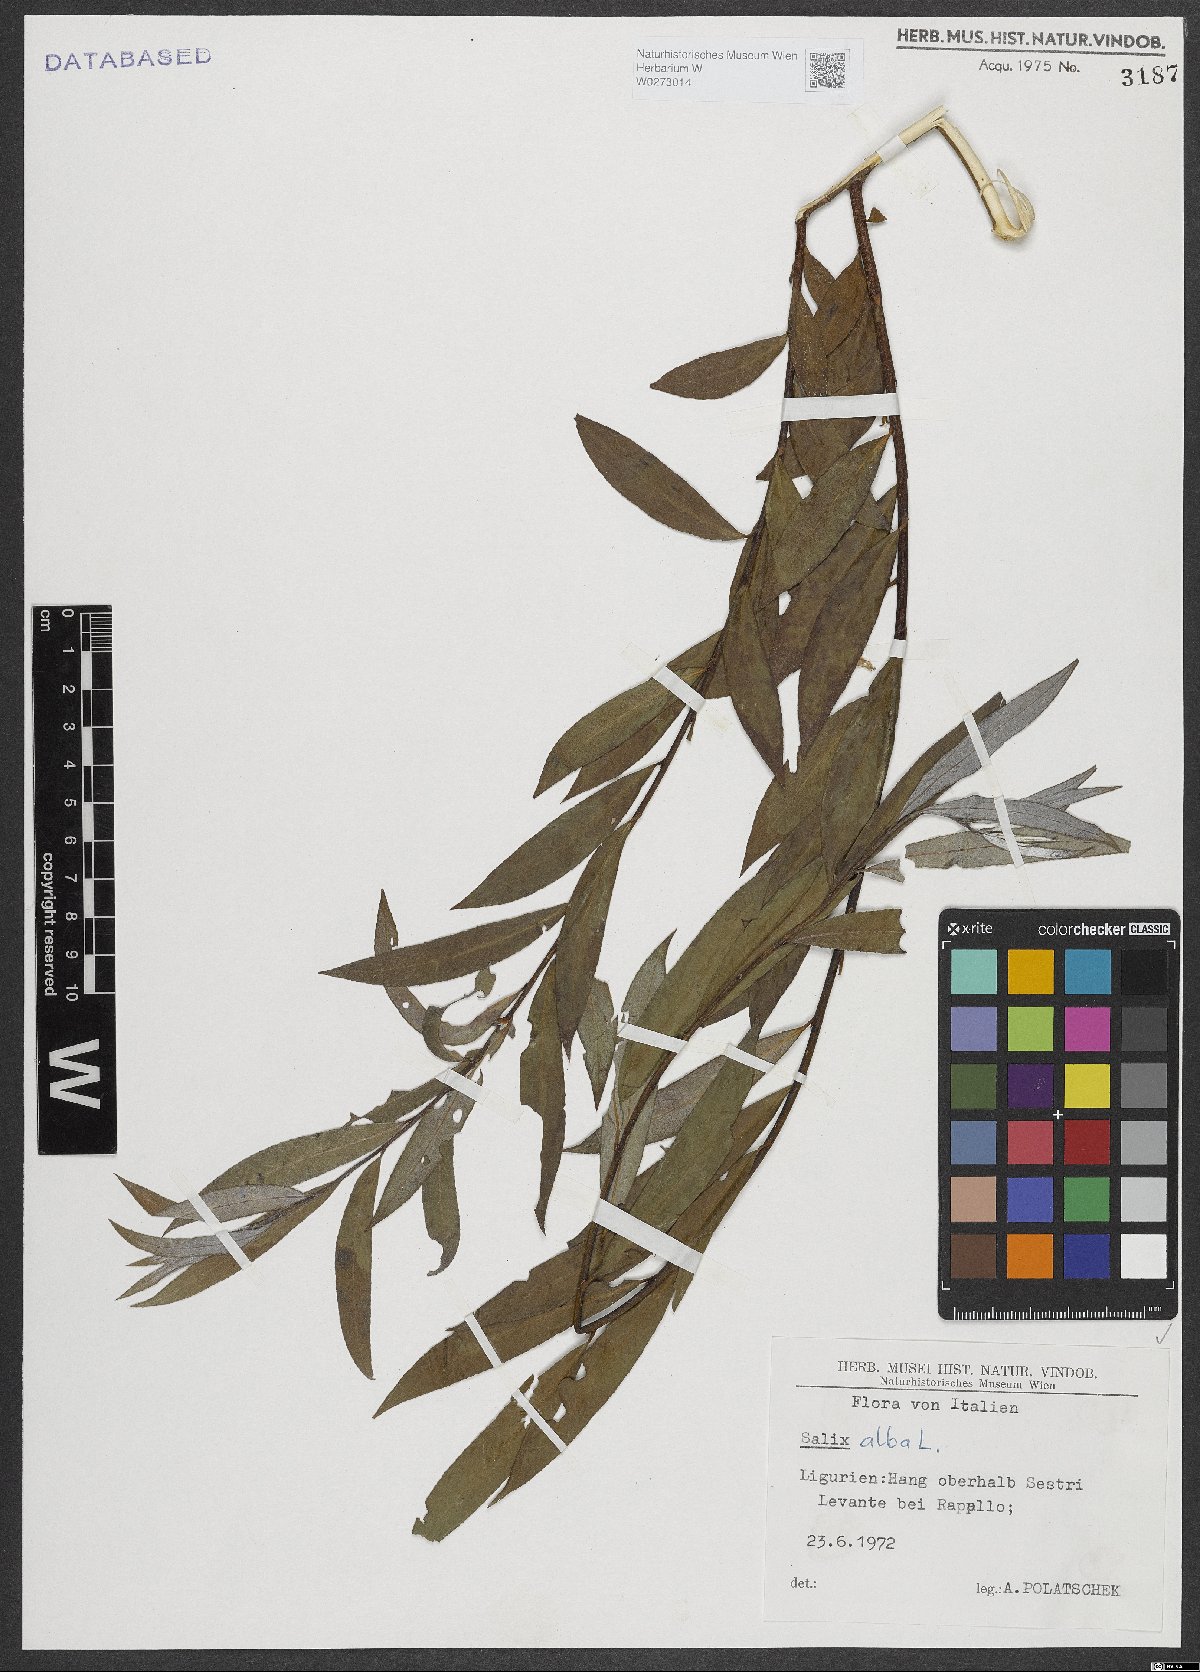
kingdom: Plantae
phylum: Tracheophyta
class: Magnoliopsida
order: Malpighiales
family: Salicaceae
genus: Salix
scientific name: Salix alba
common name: White willow
